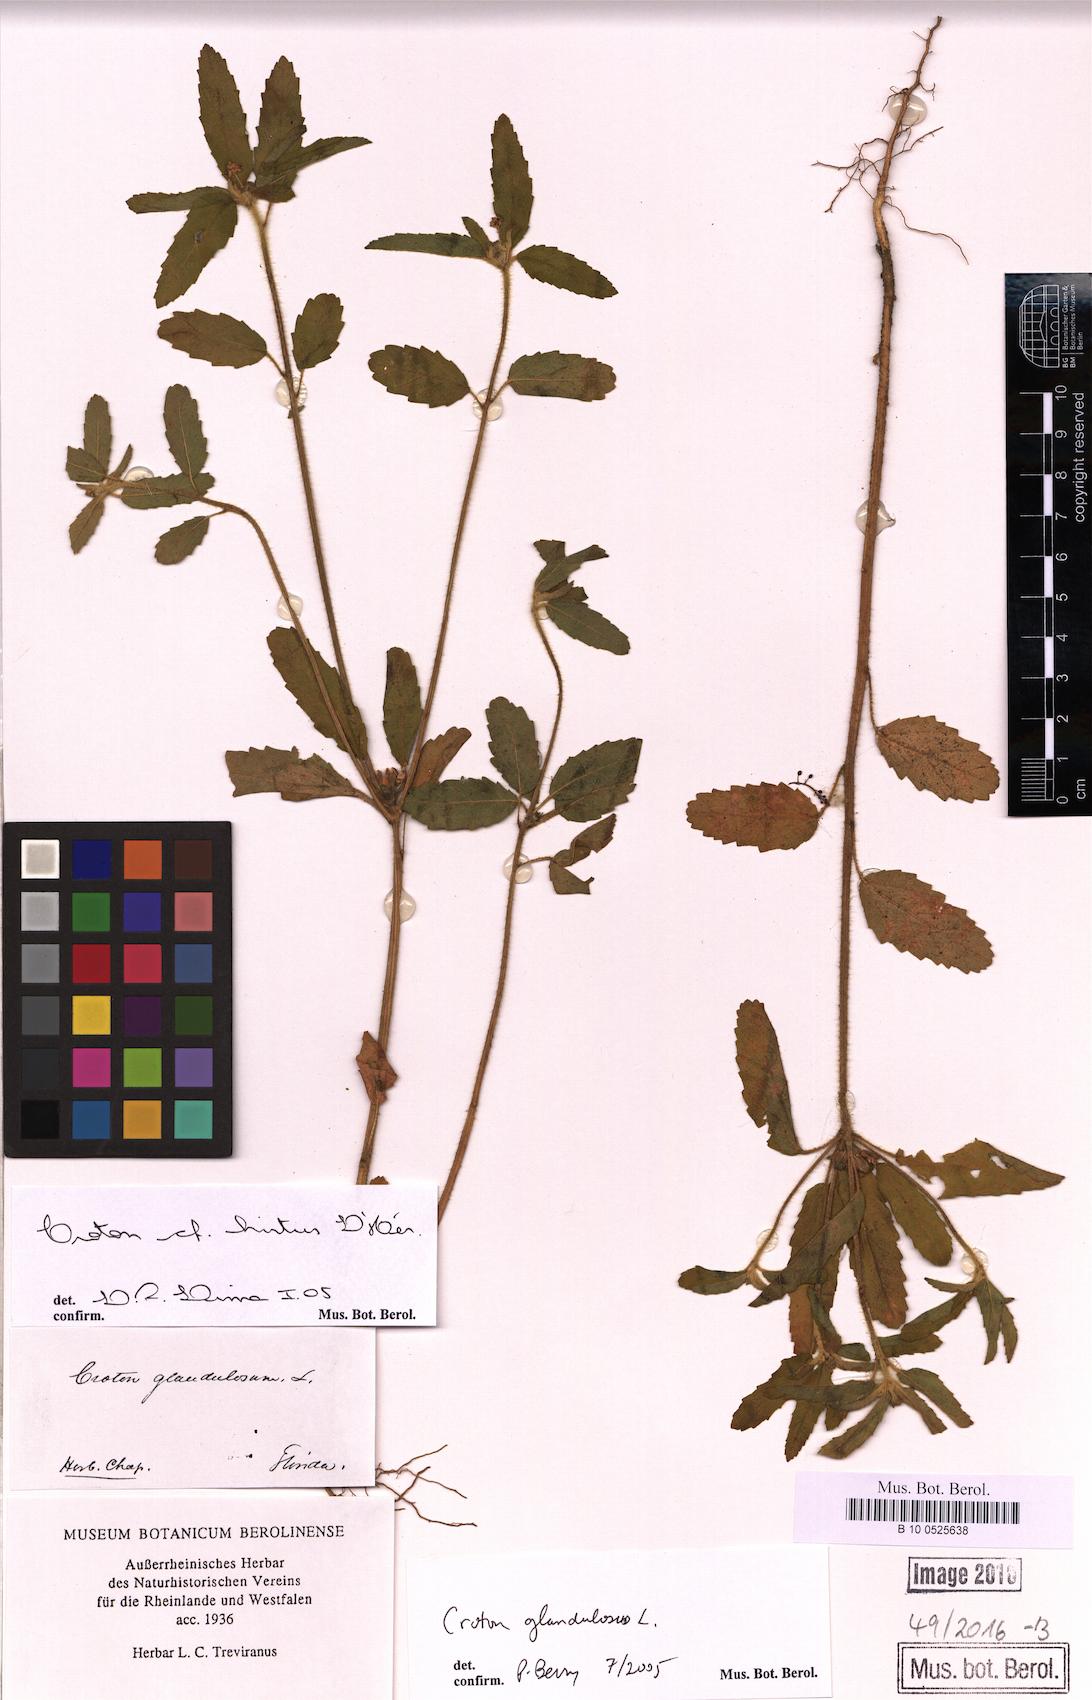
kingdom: Plantae
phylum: Tracheophyta
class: Magnoliopsida
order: Malpighiales
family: Euphorbiaceae
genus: Croton
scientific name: Croton glandulosus
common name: Tropic croton
